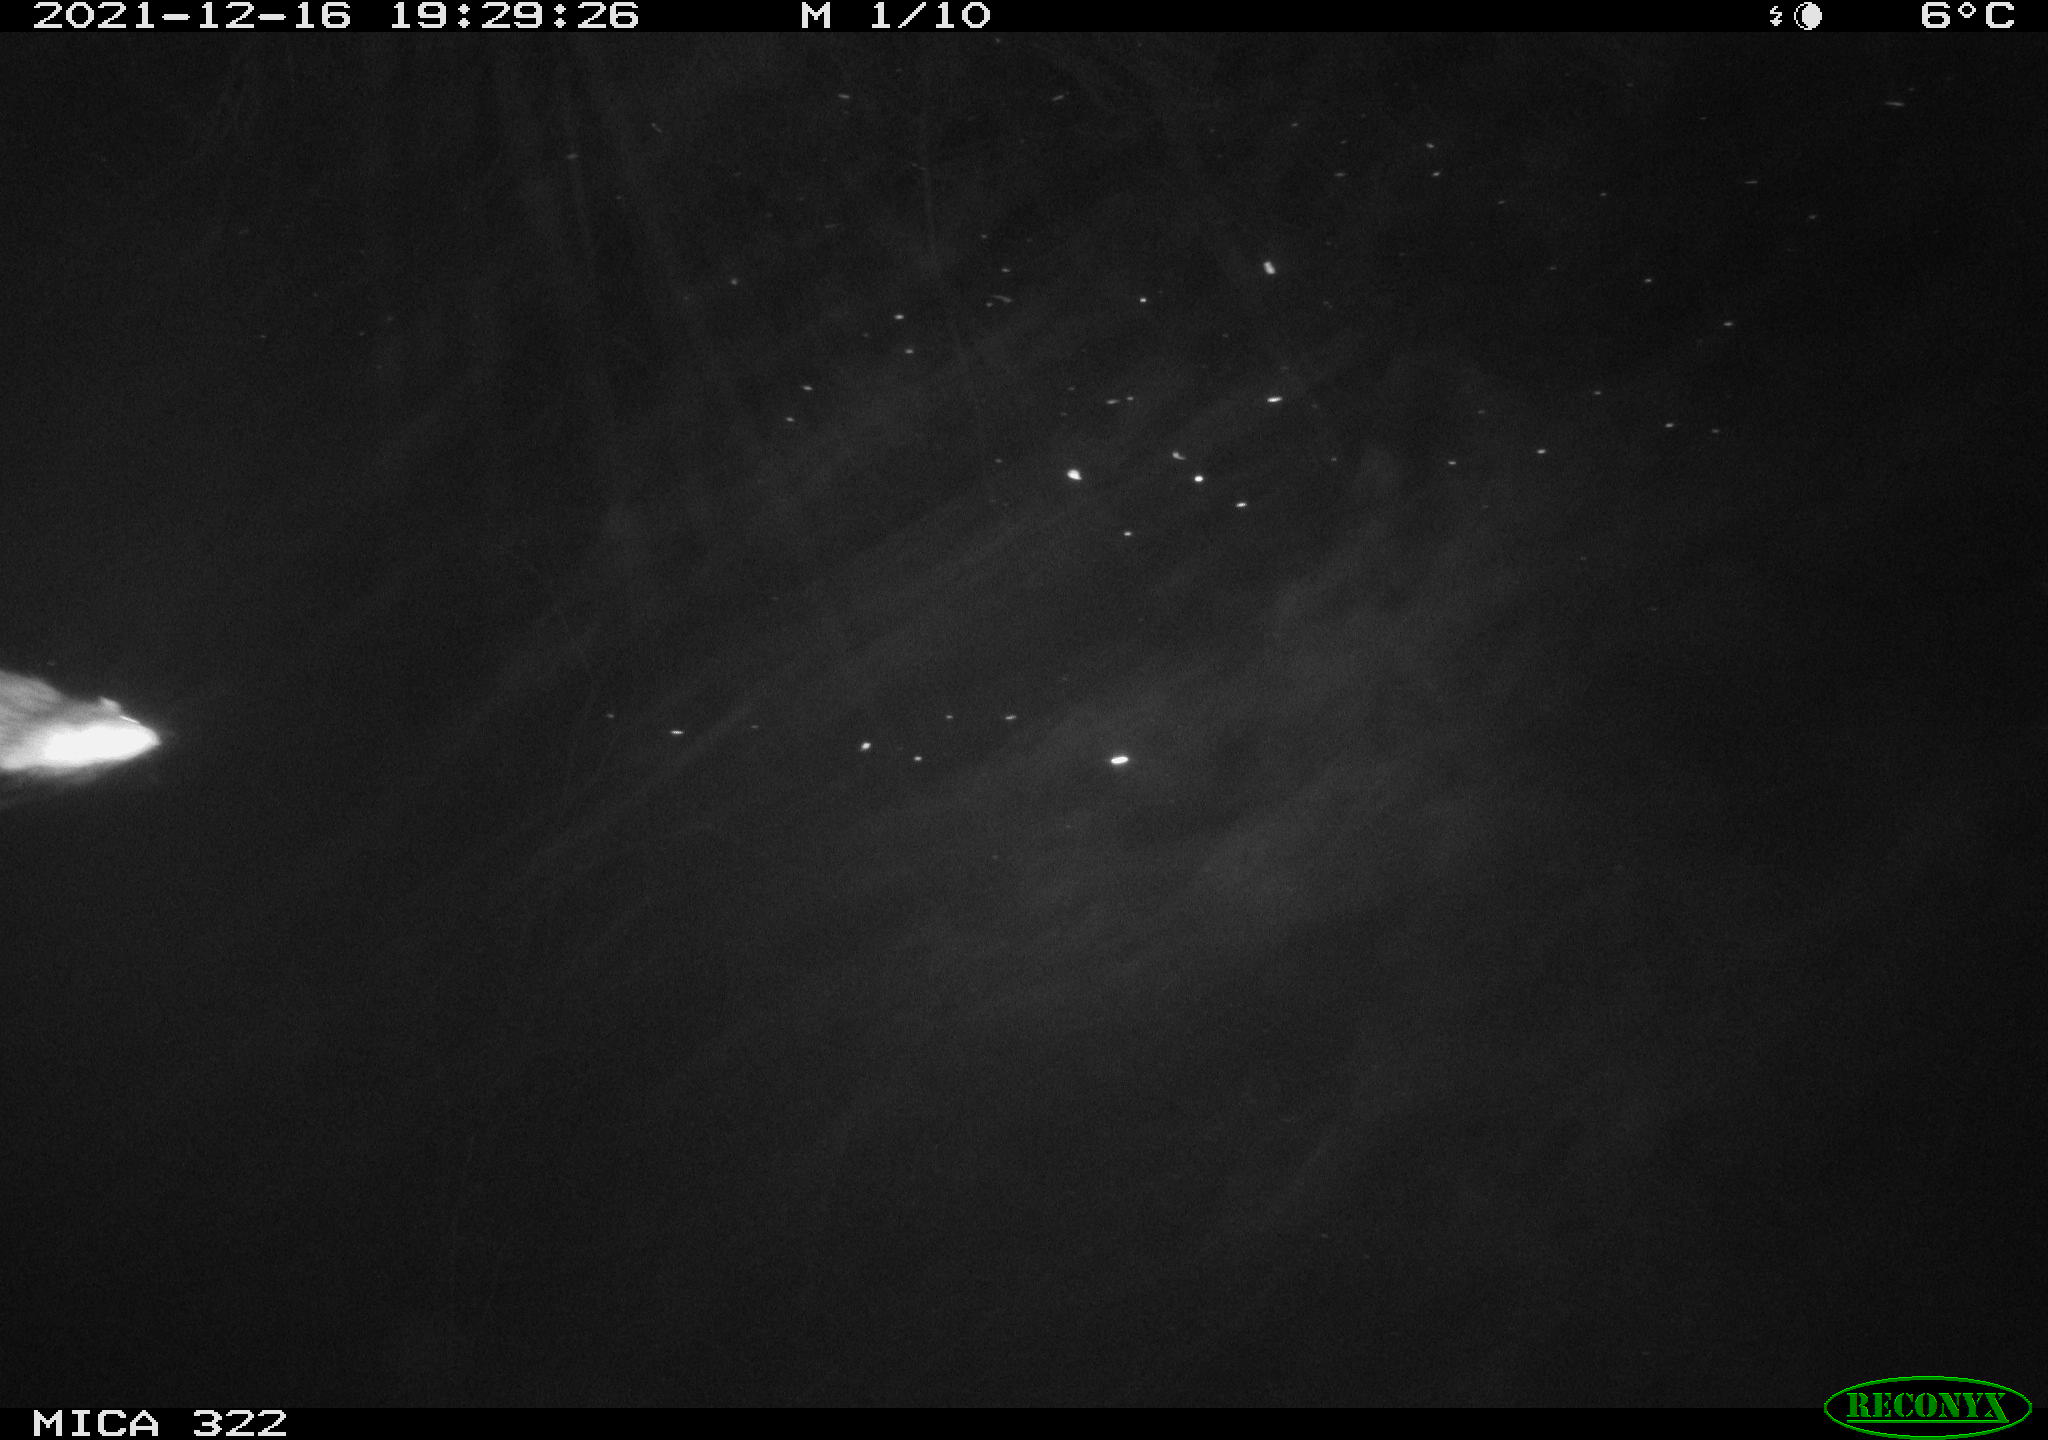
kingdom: Animalia
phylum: Chordata
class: Mammalia
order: Rodentia
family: Muridae
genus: Rattus
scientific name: Rattus norvegicus
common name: Brown rat
